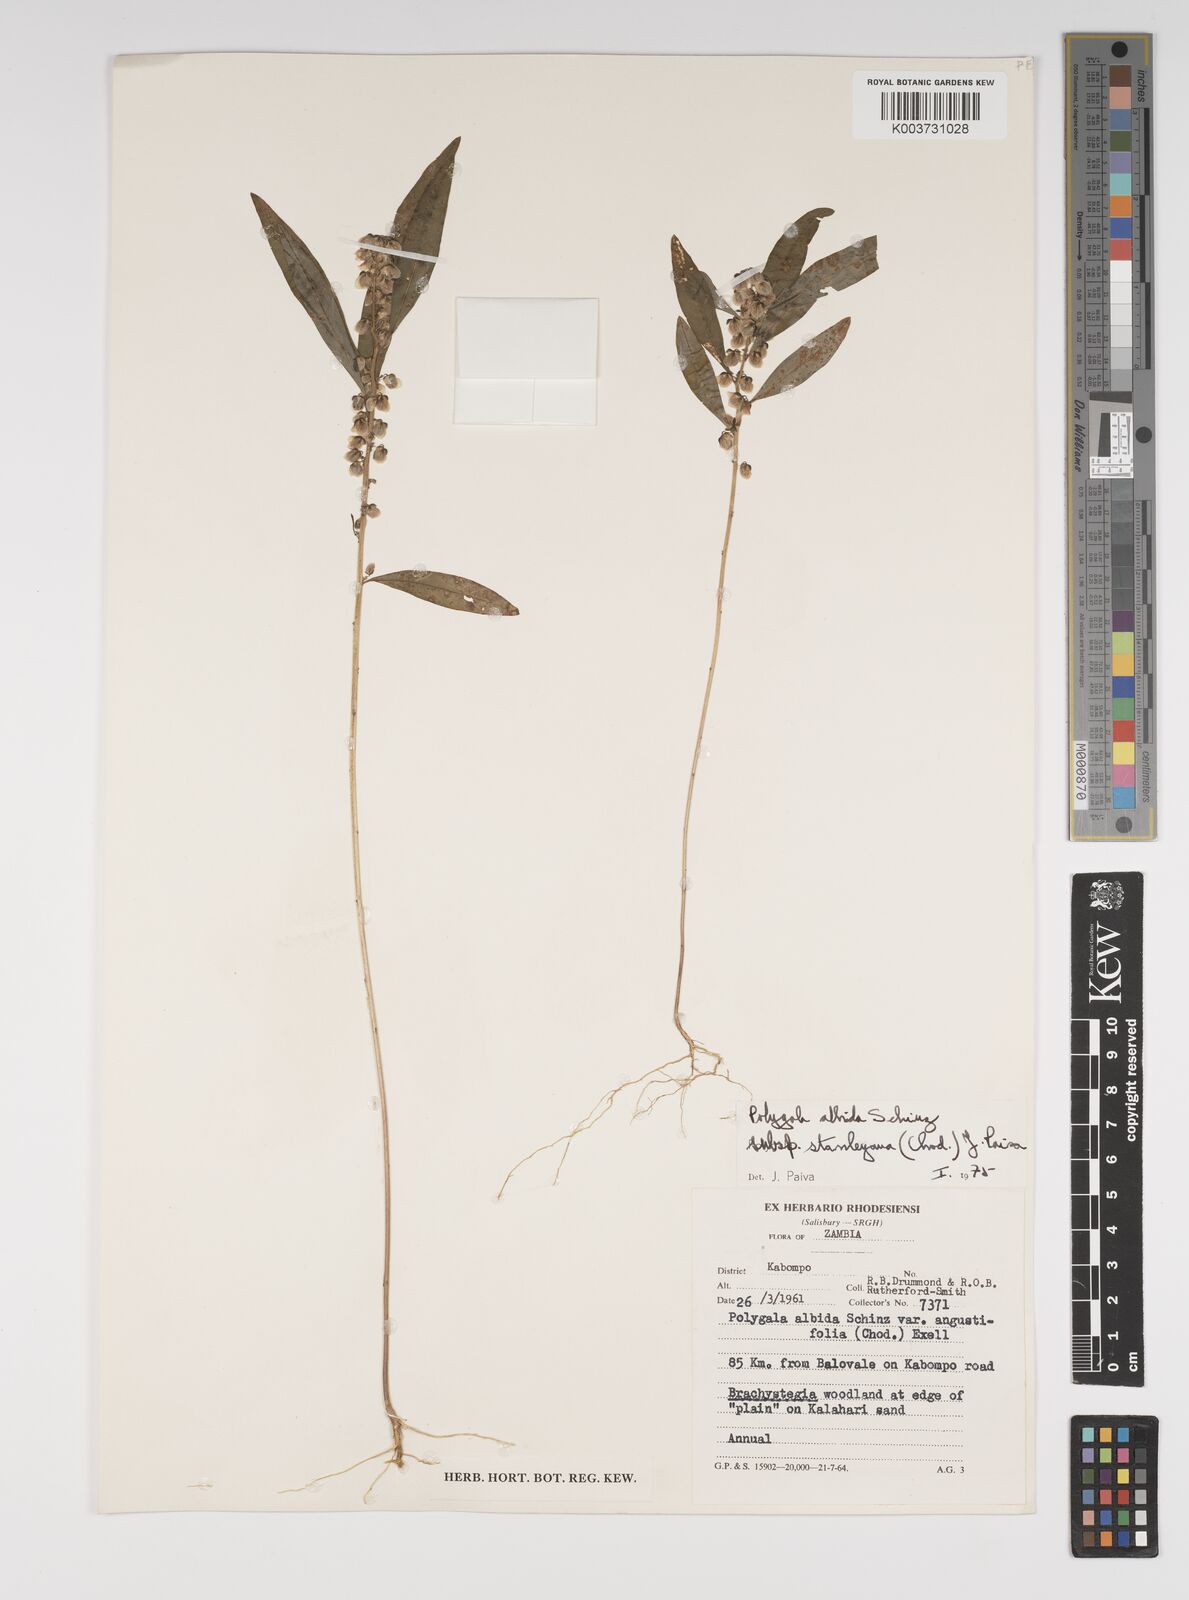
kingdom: Plantae
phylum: Tracheophyta
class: Magnoliopsida
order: Fabales
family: Polygalaceae
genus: Polygala
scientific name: Polygala albida
